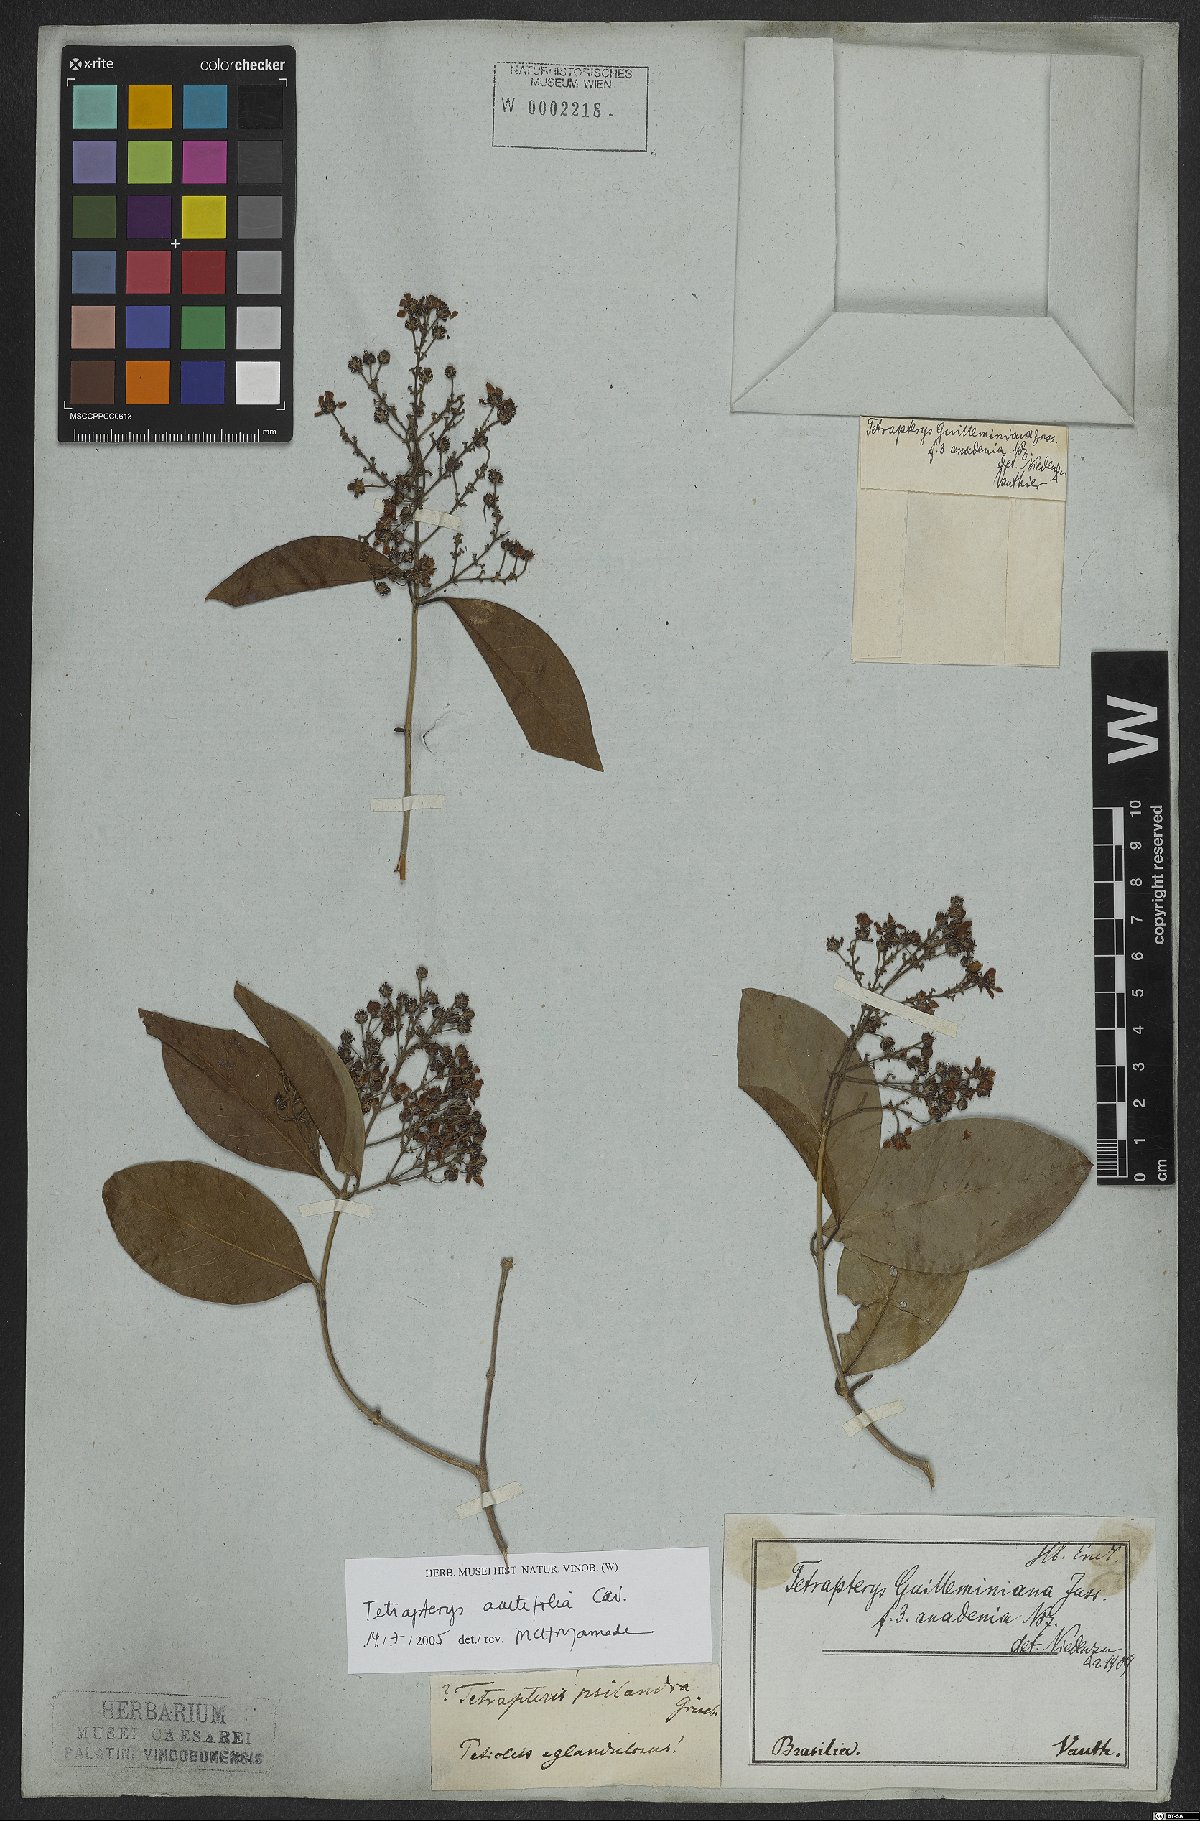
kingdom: Plantae
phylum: Tracheophyta
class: Magnoliopsida
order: Malpighiales
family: Malpighiaceae
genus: Niedenzuella
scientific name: Niedenzuella acutifolia
